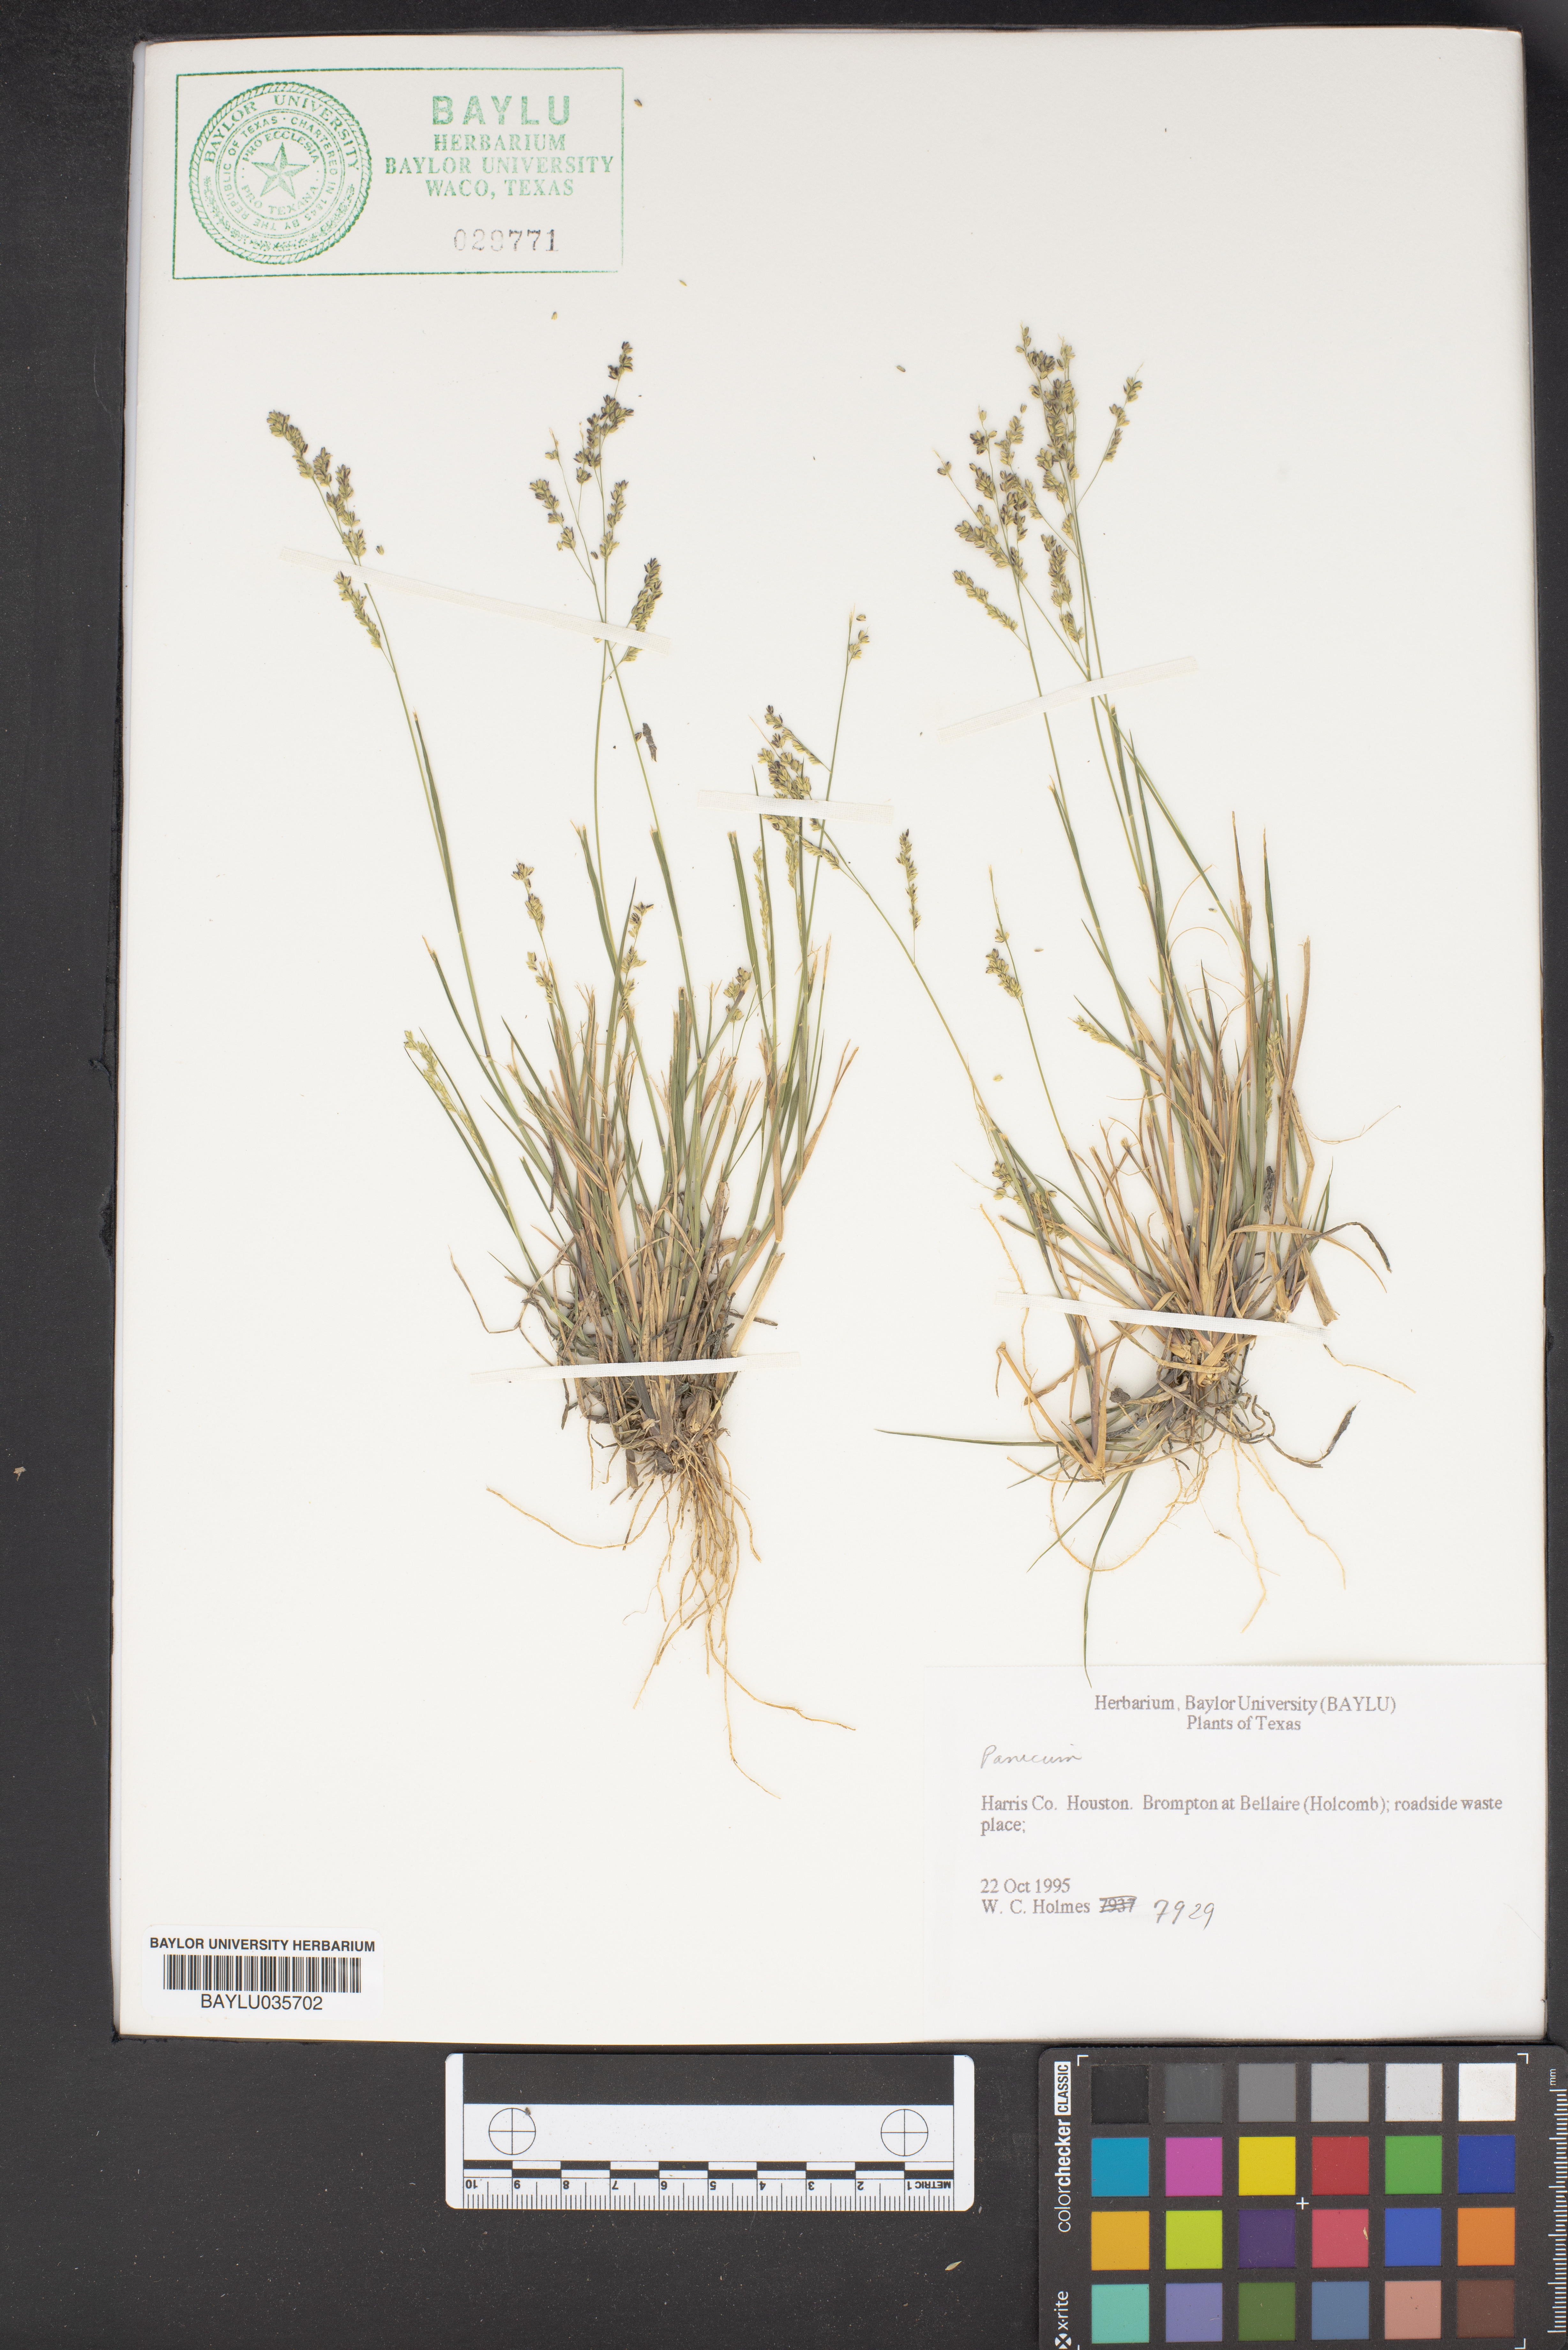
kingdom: Plantae
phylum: Tracheophyta
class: Liliopsida
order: Poales
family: Poaceae
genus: Panicum
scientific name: Panicum
